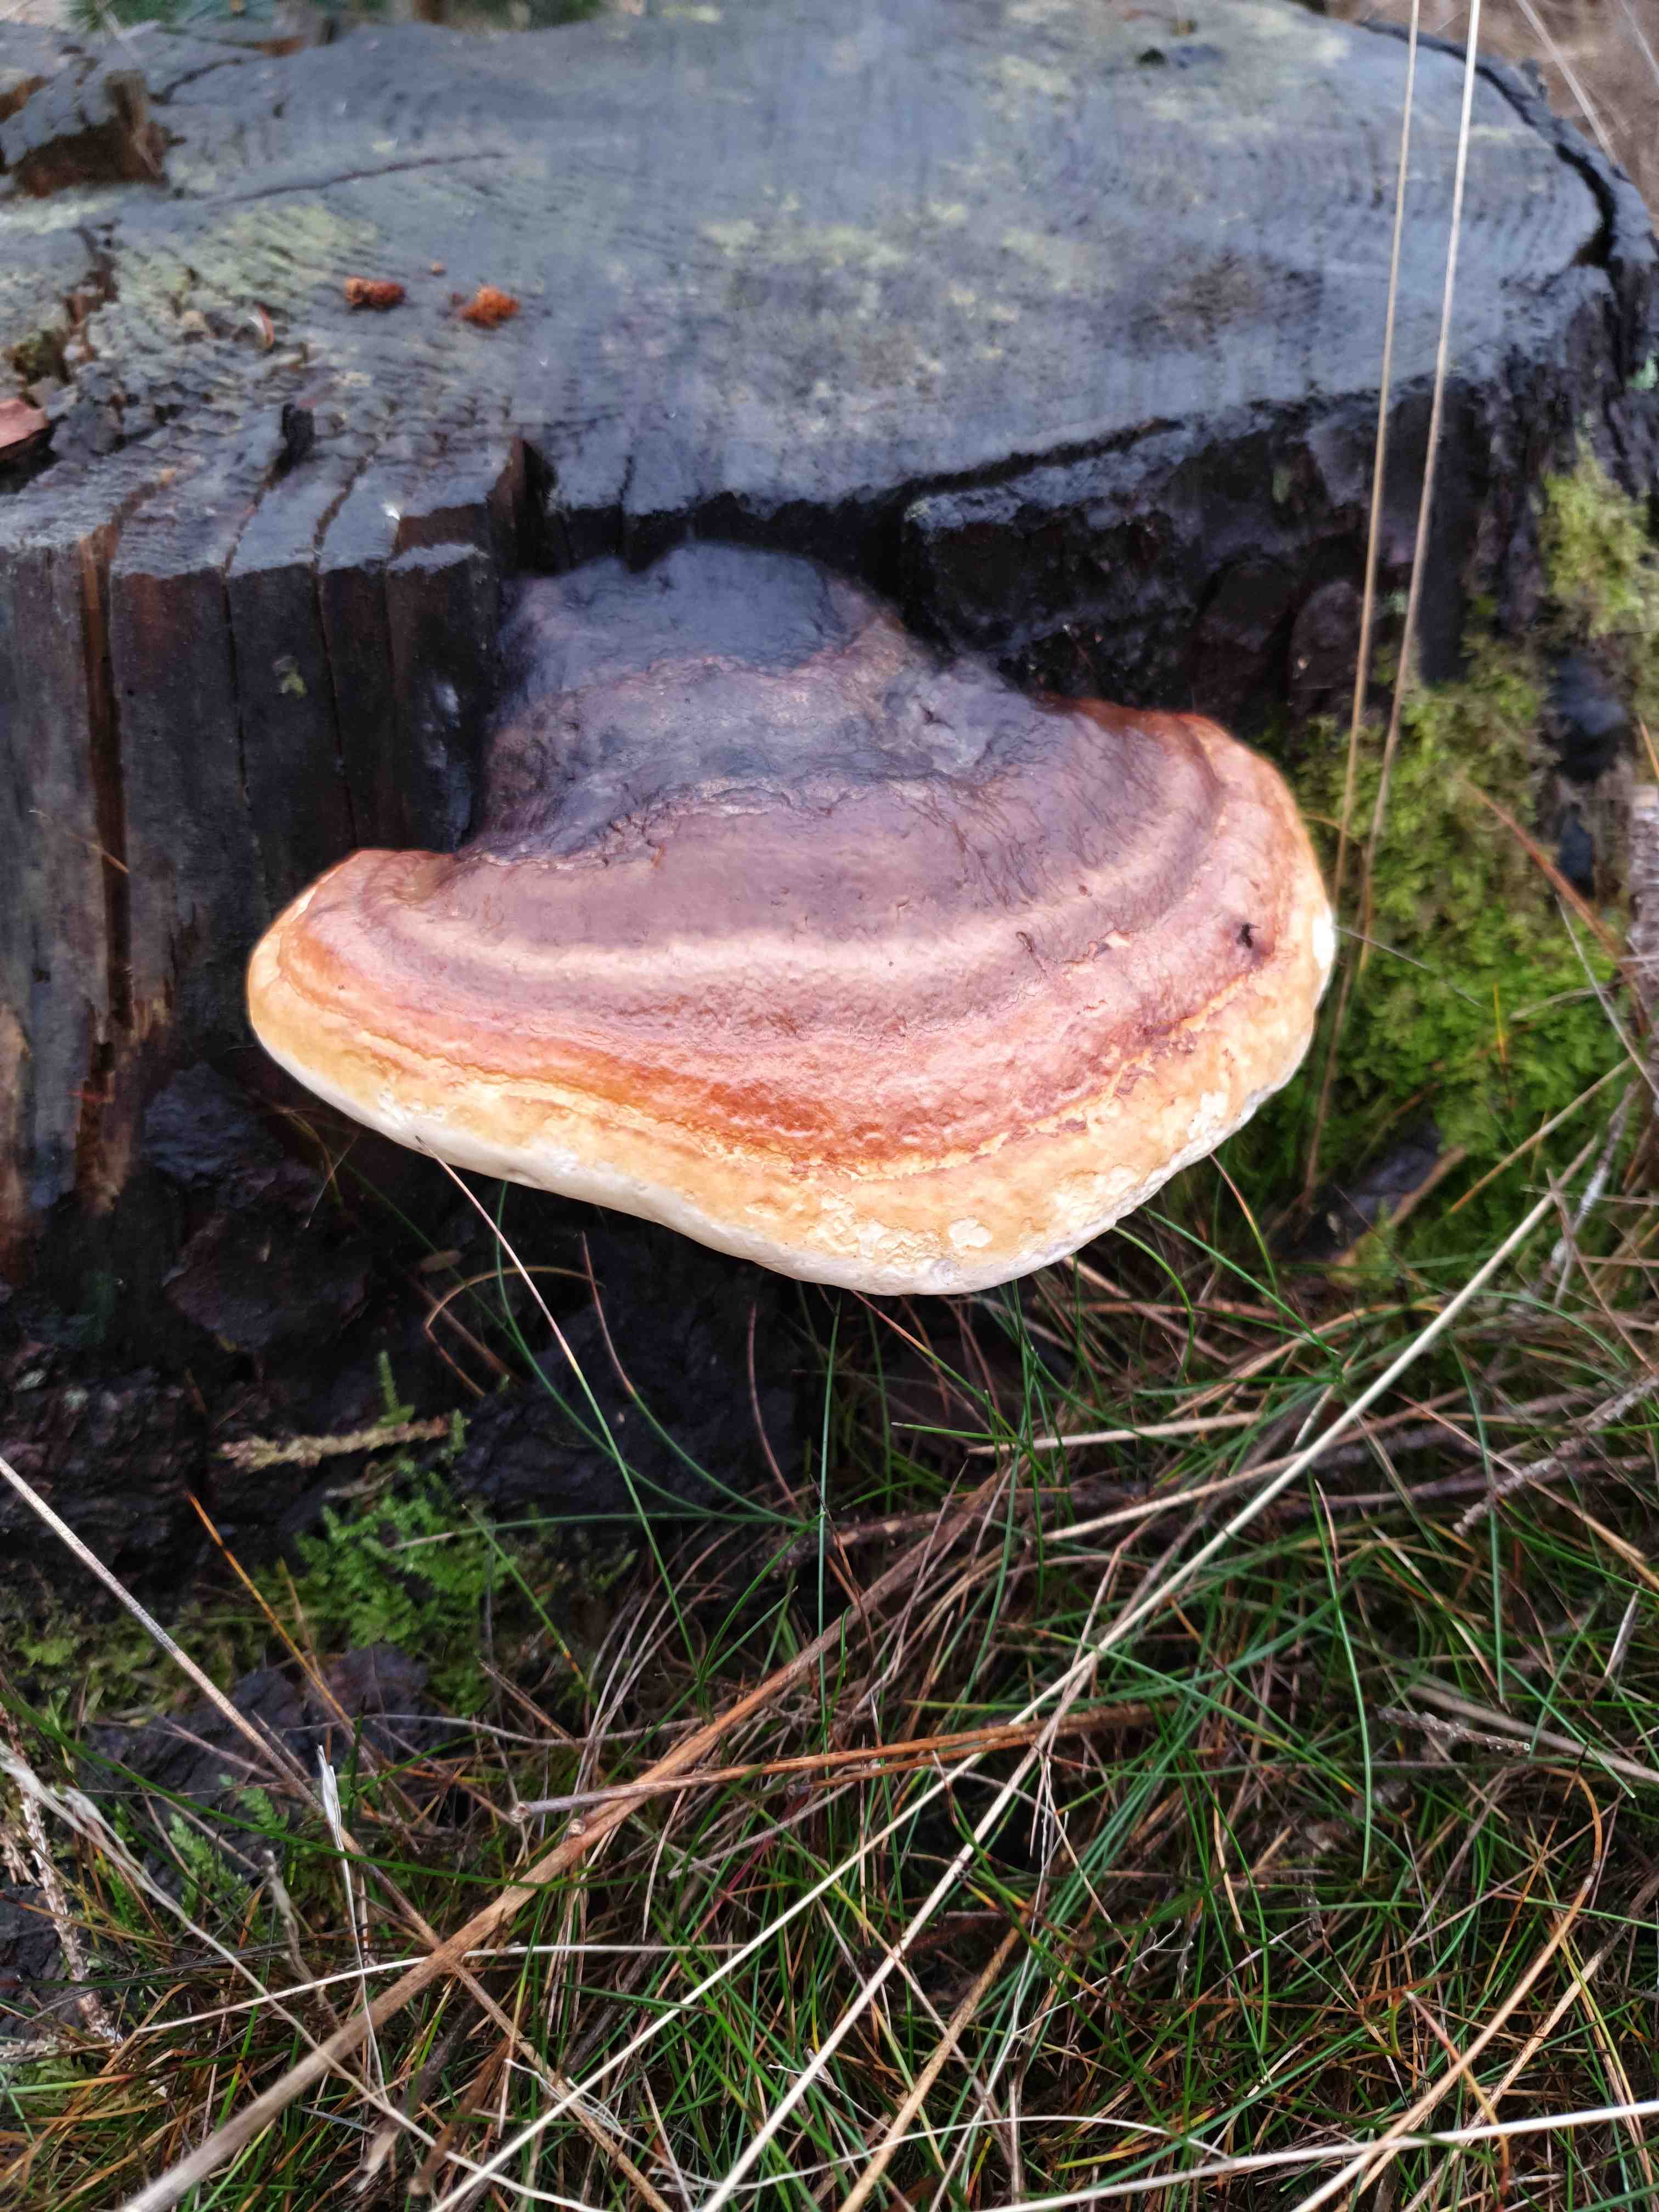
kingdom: Fungi
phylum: Basidiomycota
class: Agaricomycetes
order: Polyporales
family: Fomitopsidaceae
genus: Fomitopsis
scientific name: Fomitopsis pinicola
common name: randbæltet hovporesvamp
